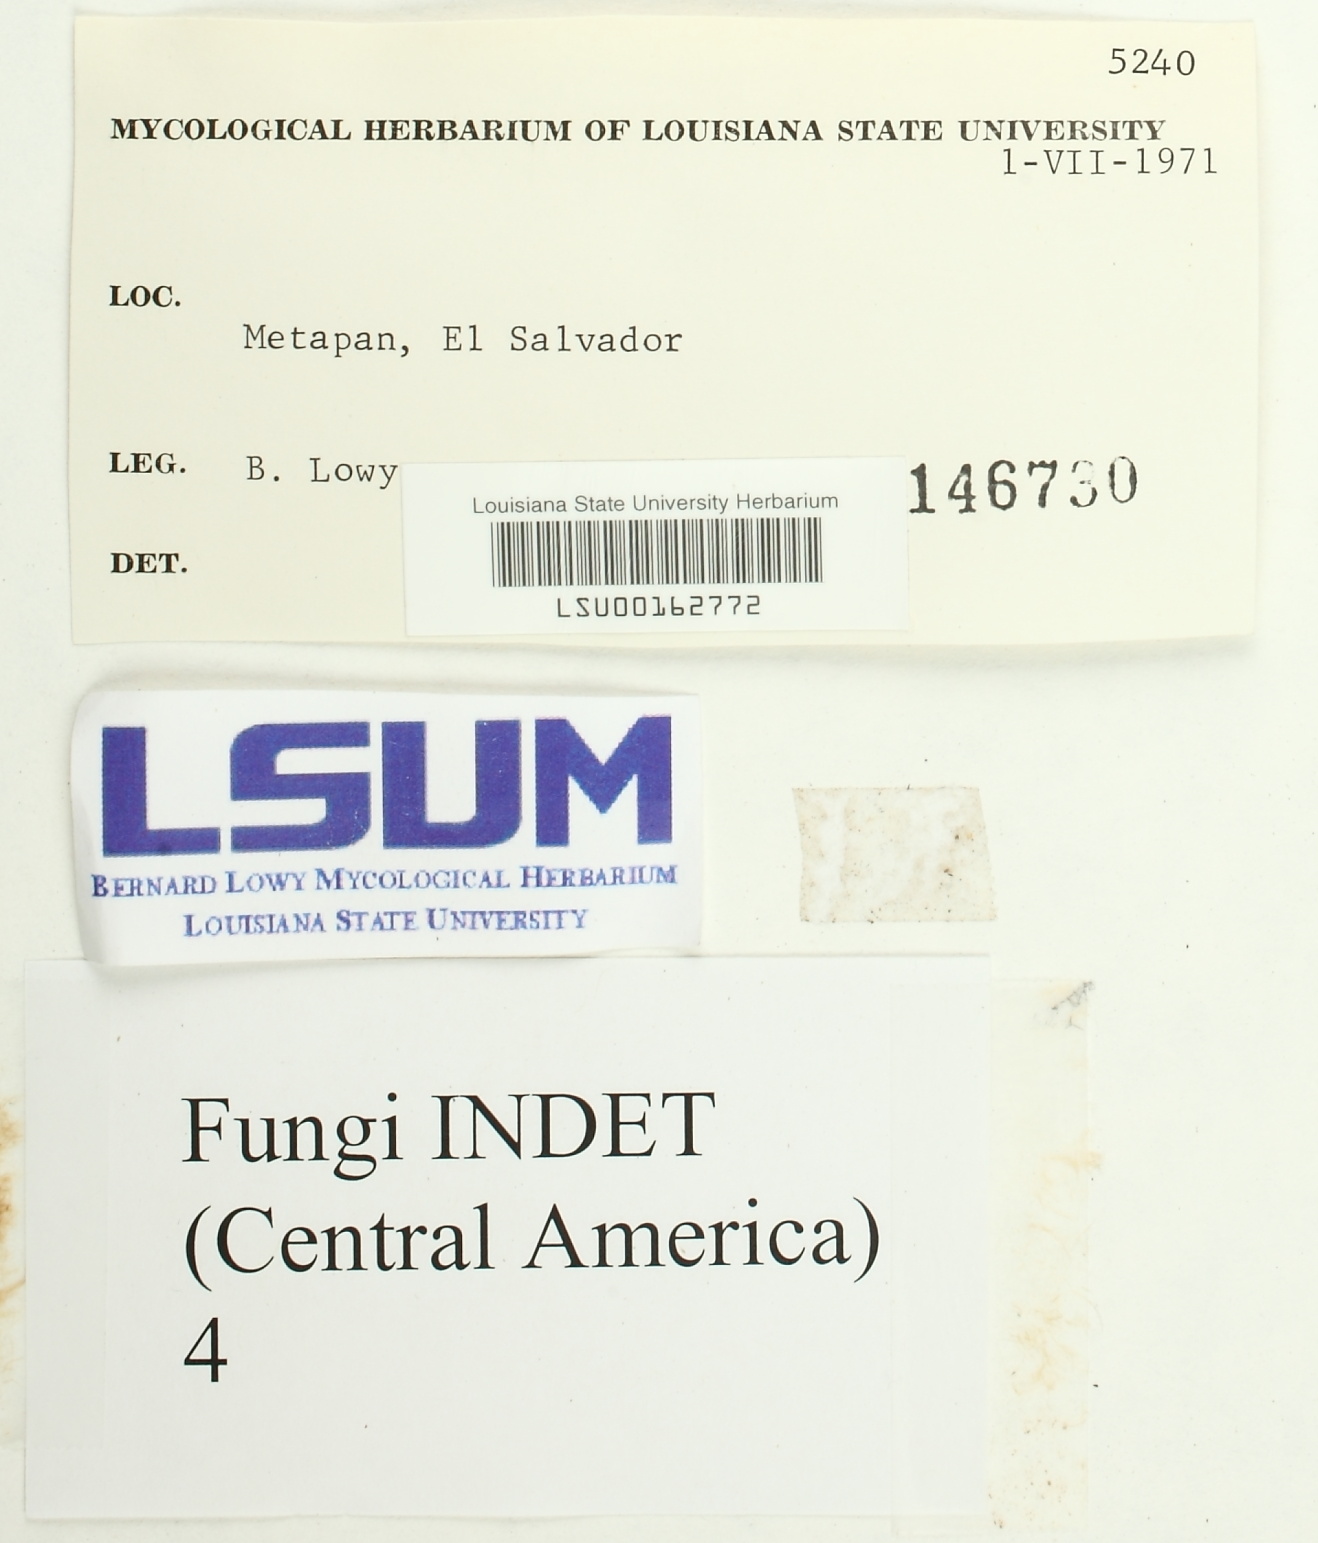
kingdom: Fungi
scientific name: Fungi
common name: Fungi
